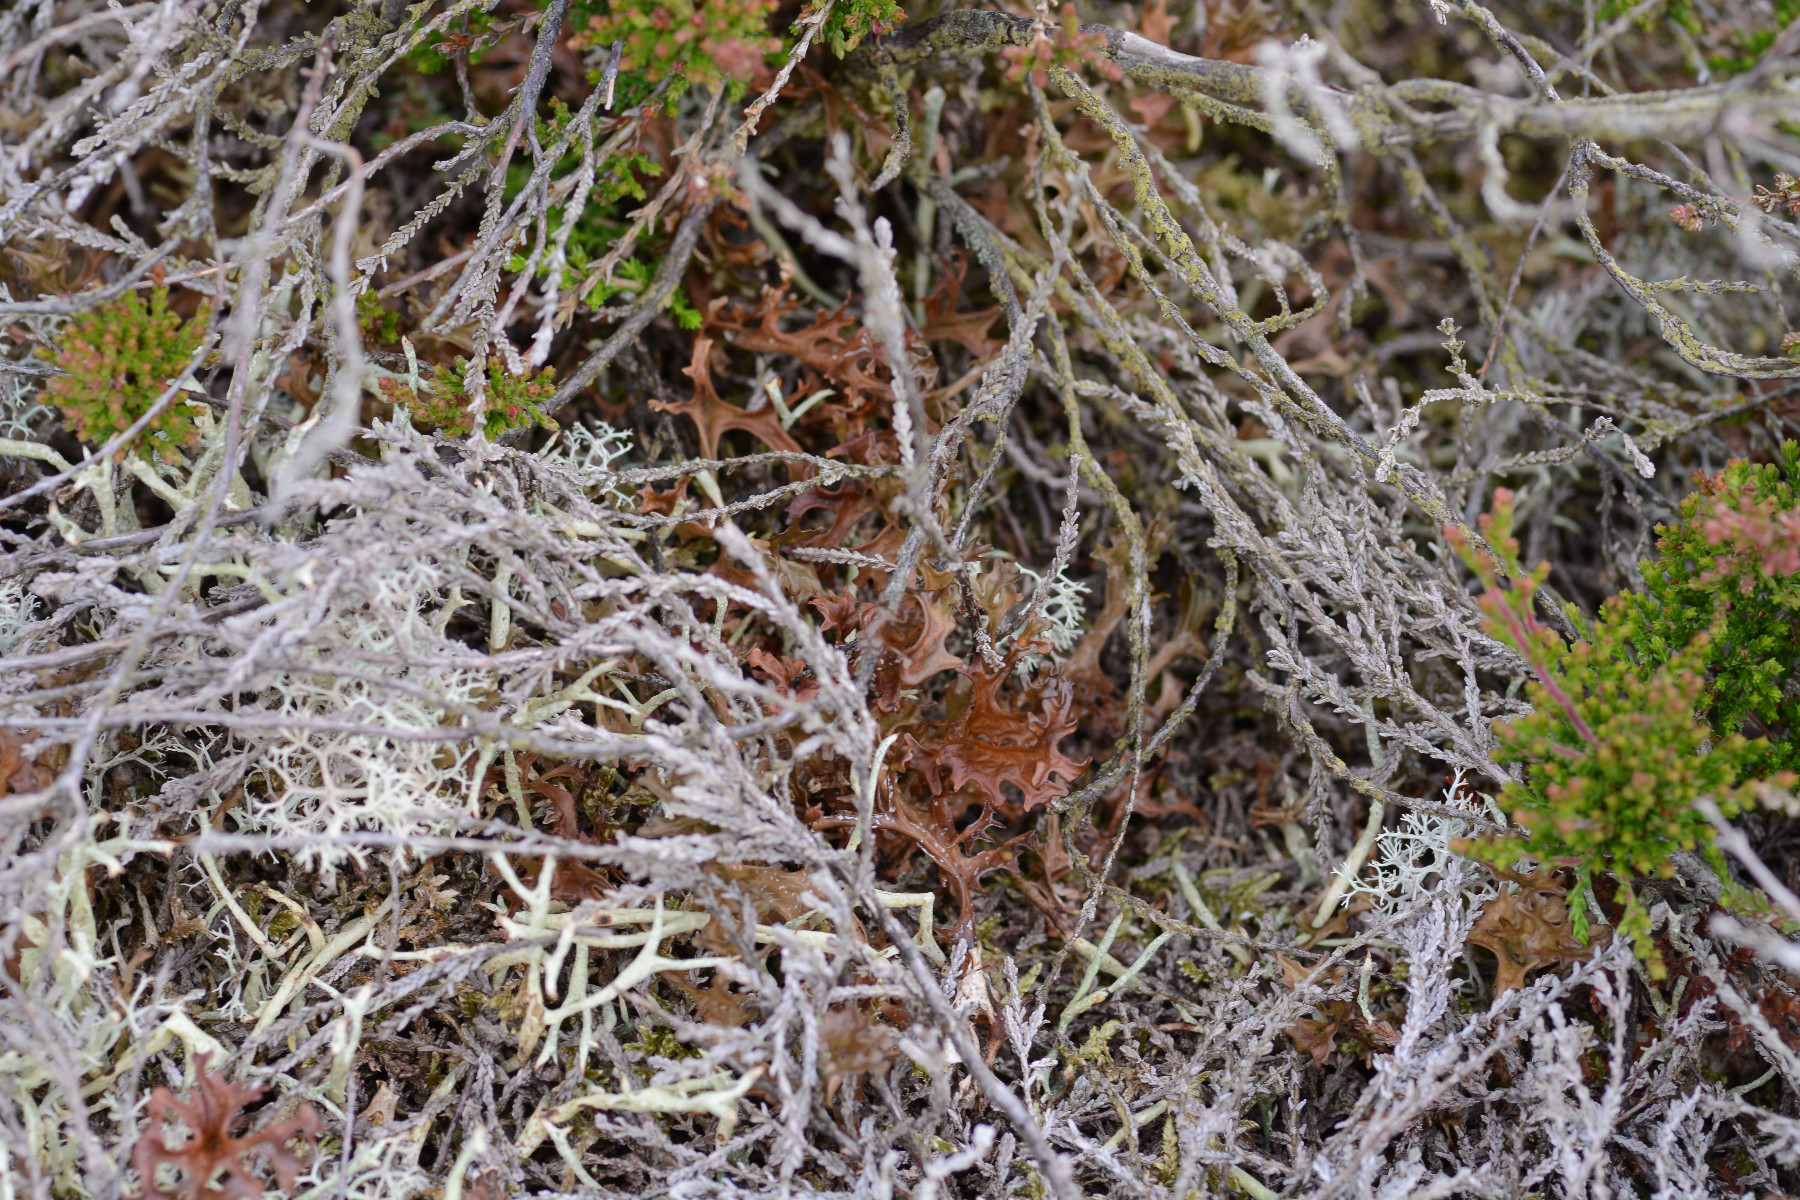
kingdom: Fungi
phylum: Ascomycota
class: Lecanoromycetes
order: Lecanorales
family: Parmeliaceae
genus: Cetraria
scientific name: Cetraria islandica
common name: islandsk kruslav
